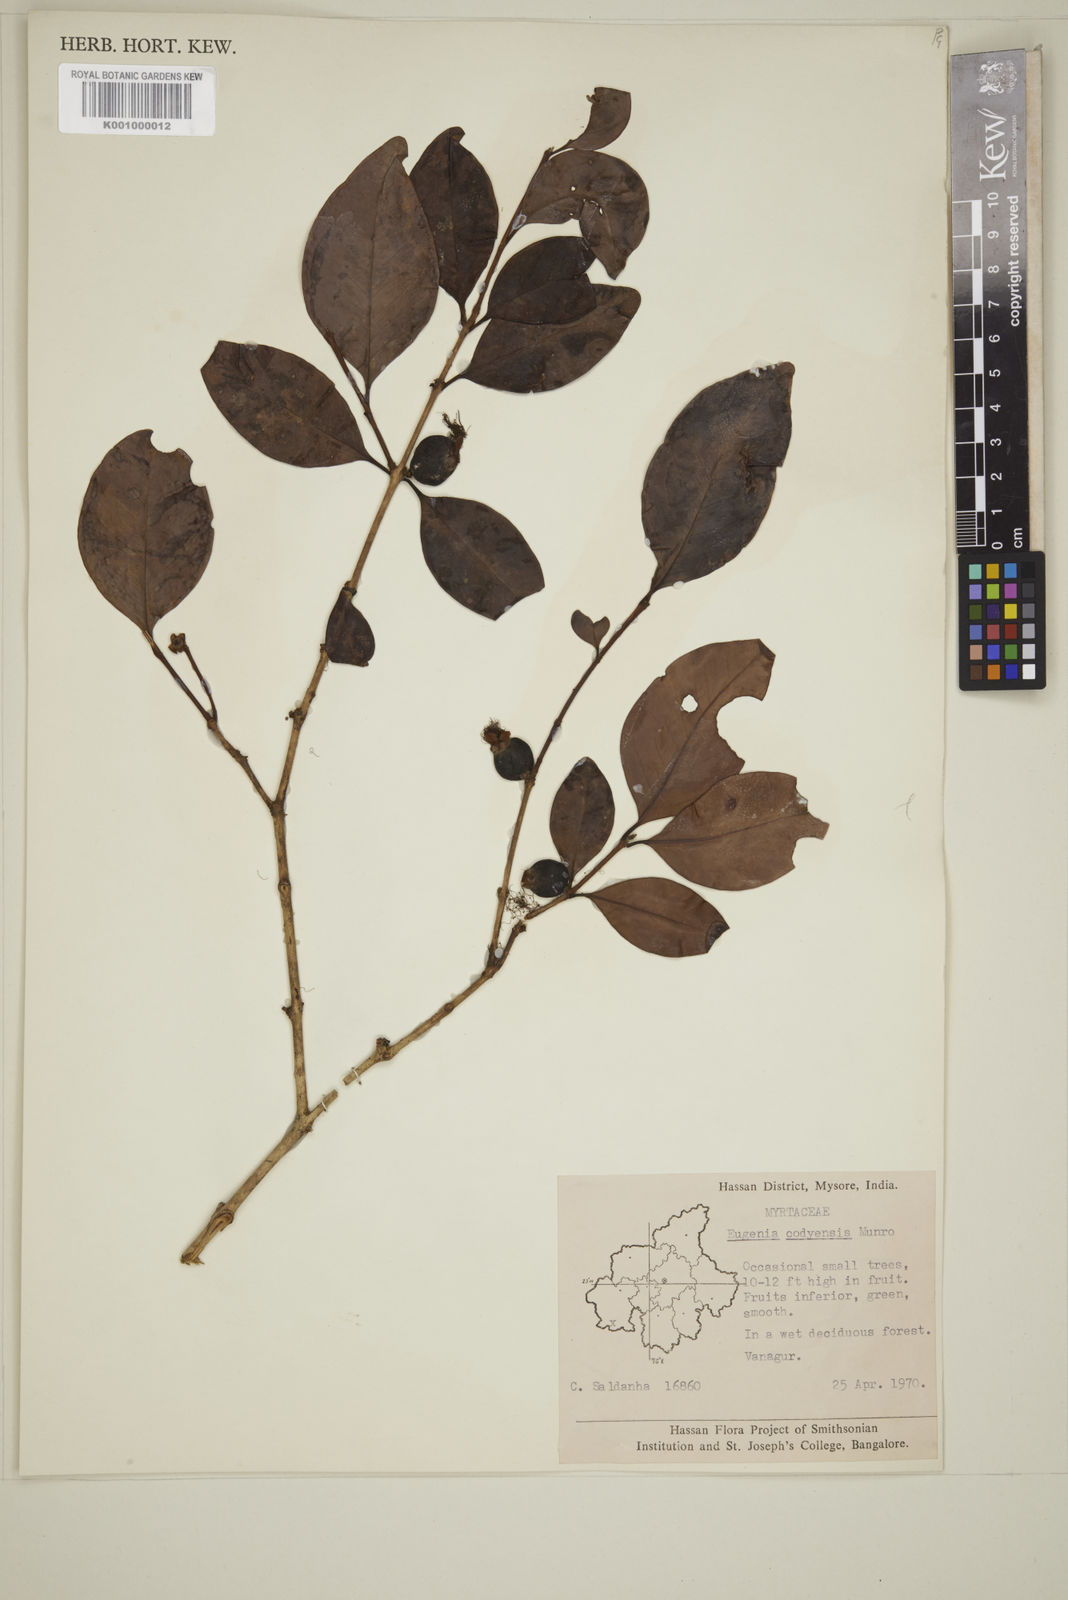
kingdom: Plantae
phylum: Tracheophyta
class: Magnoliopsida
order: Myrtales
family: Myrtaceae
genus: Eugenia
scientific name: Eugenia codyensis
